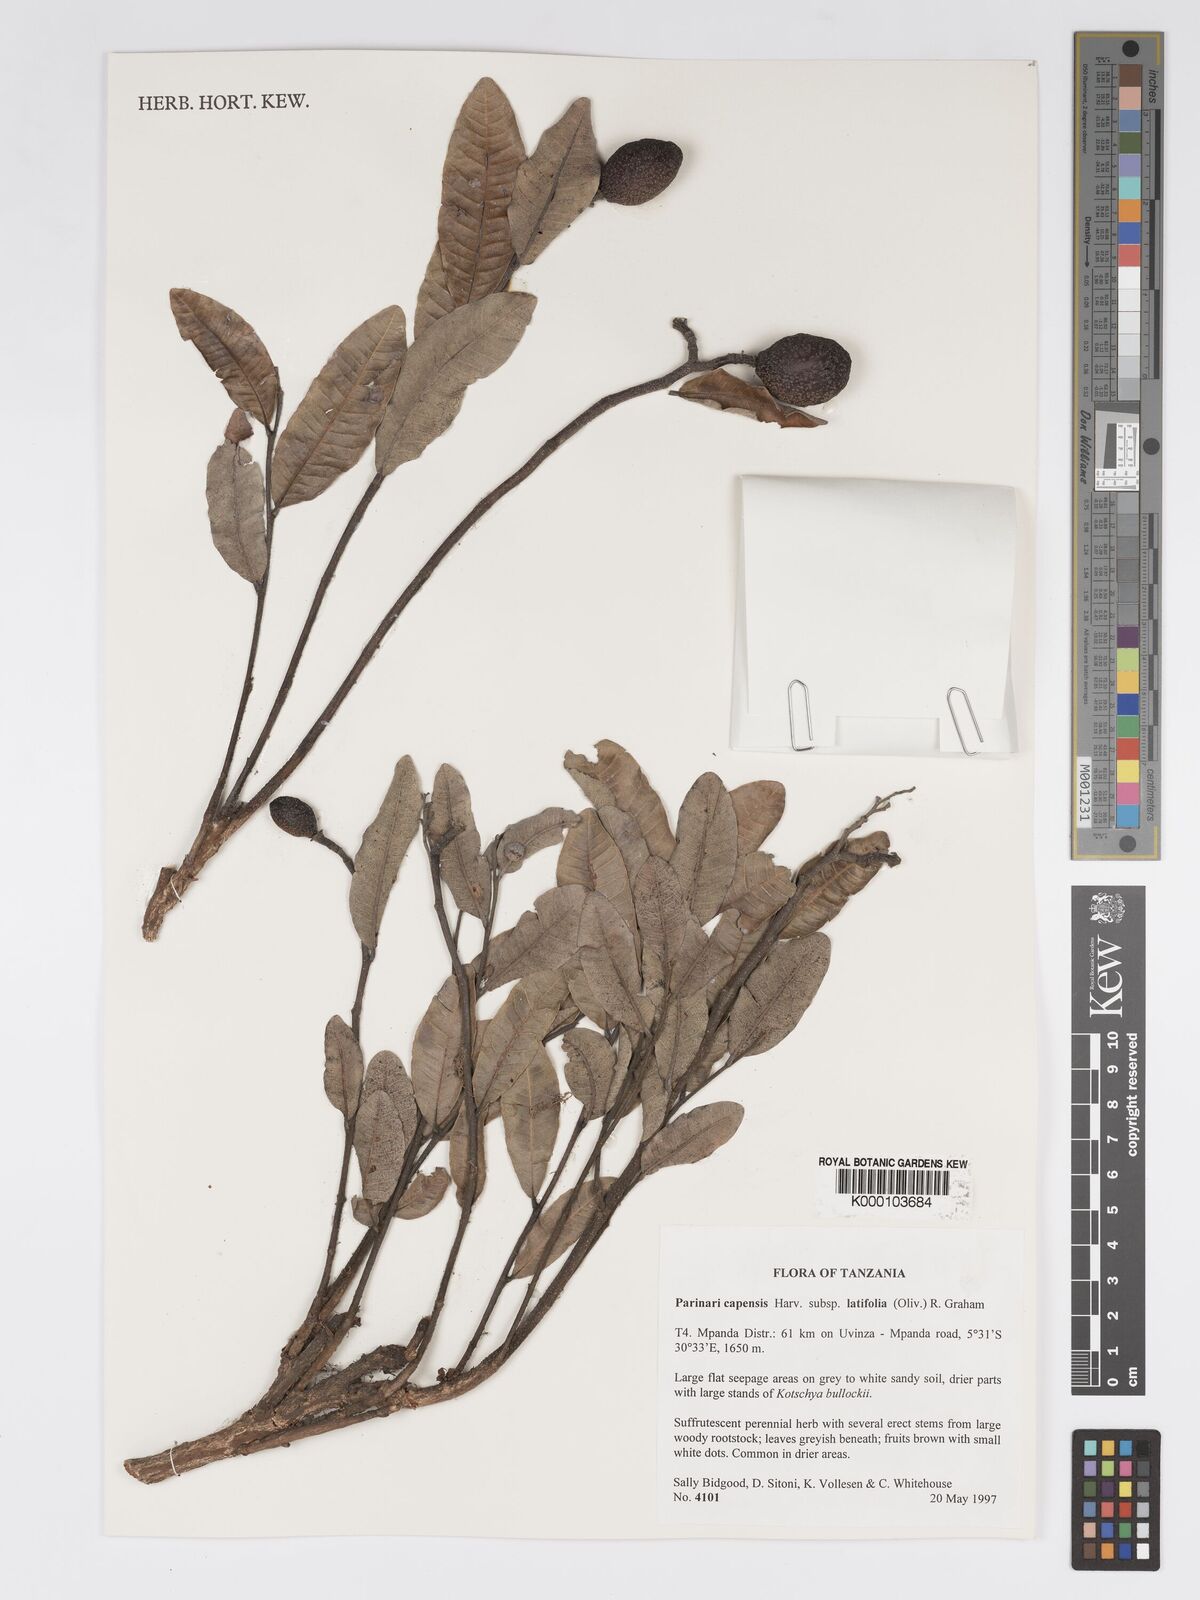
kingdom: Plantae
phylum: Tracheophyta
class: Magnoliopsida
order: Malpighiales
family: Chrysobalanaceae
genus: Parinari
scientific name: Parinari capensis
